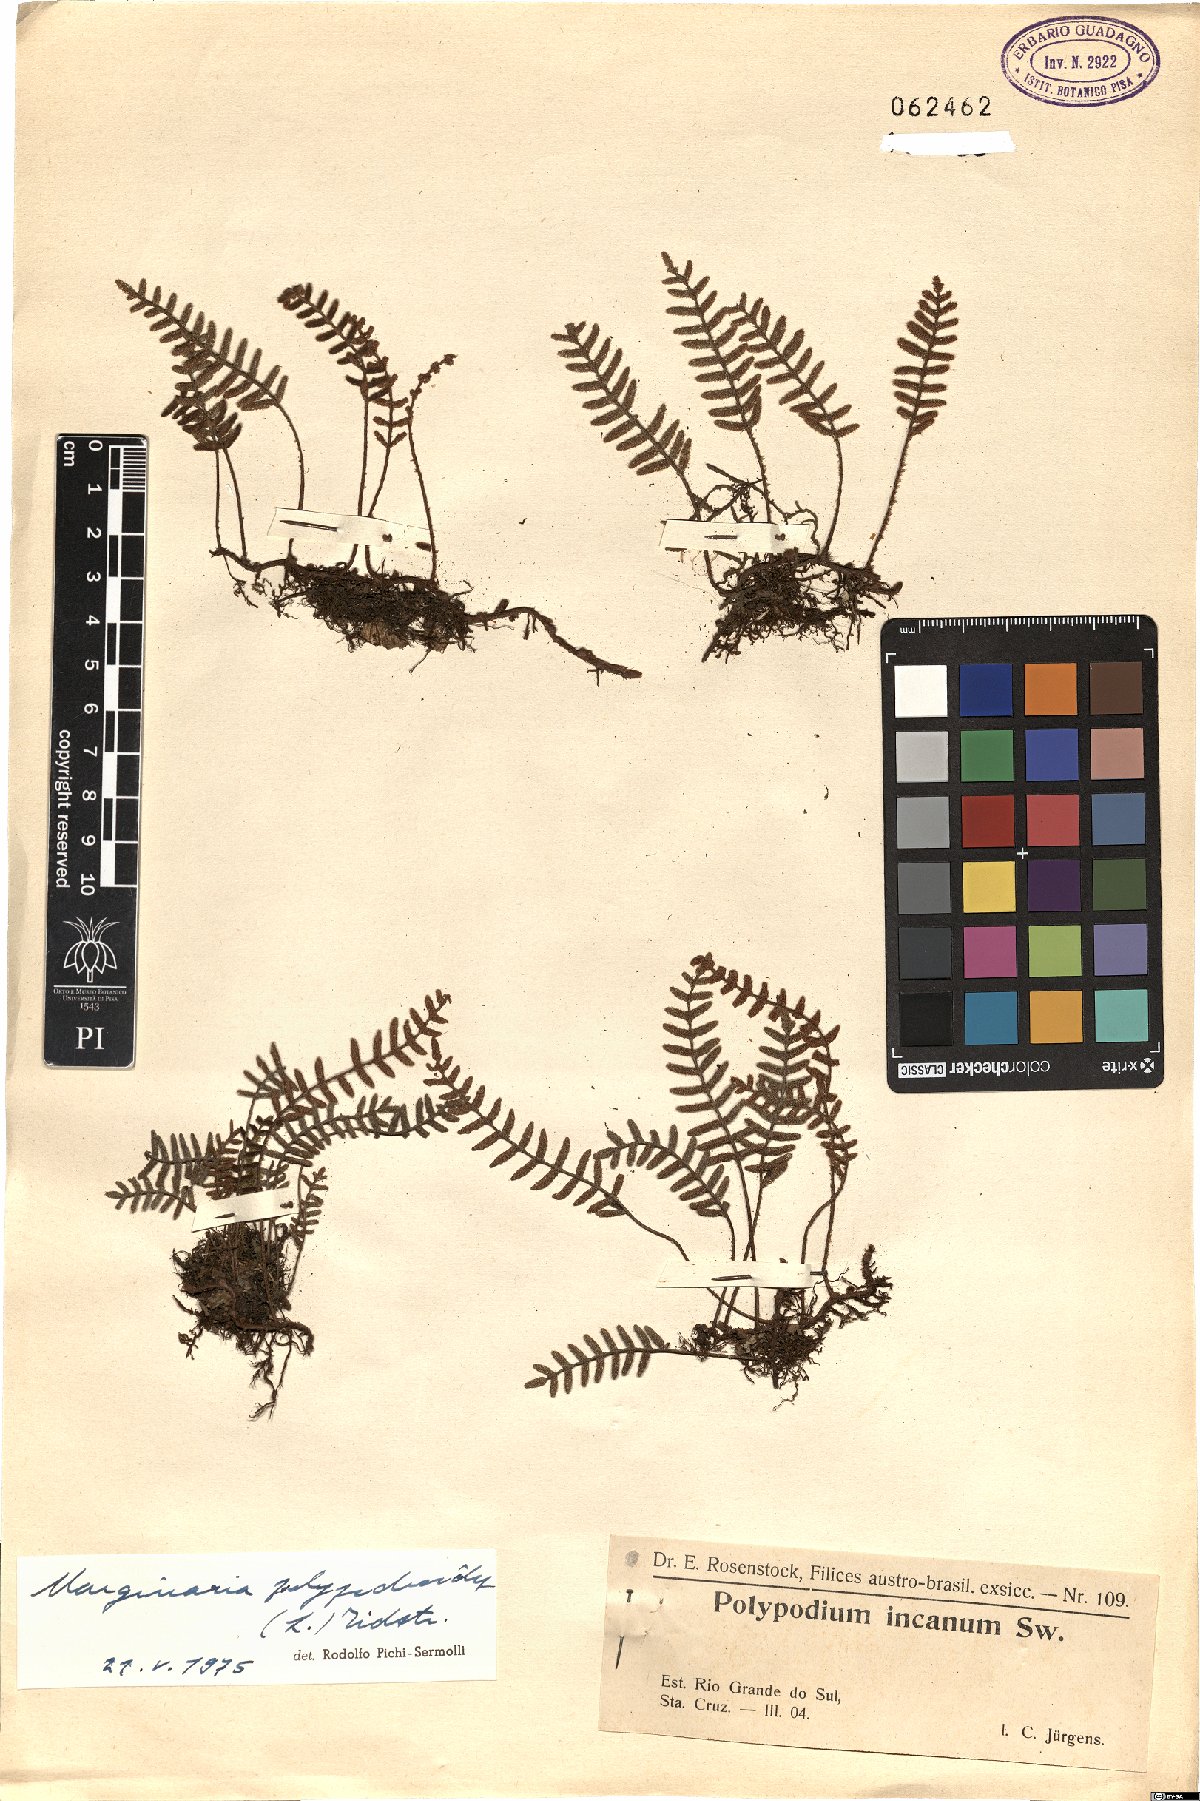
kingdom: Plantae
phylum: Tracheophyta
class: Polypodiopsida
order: Polypodiales
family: Polypodiaceae
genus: Pleopeltis
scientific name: Pleopeltis polypodioides
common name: Resurrection fern
